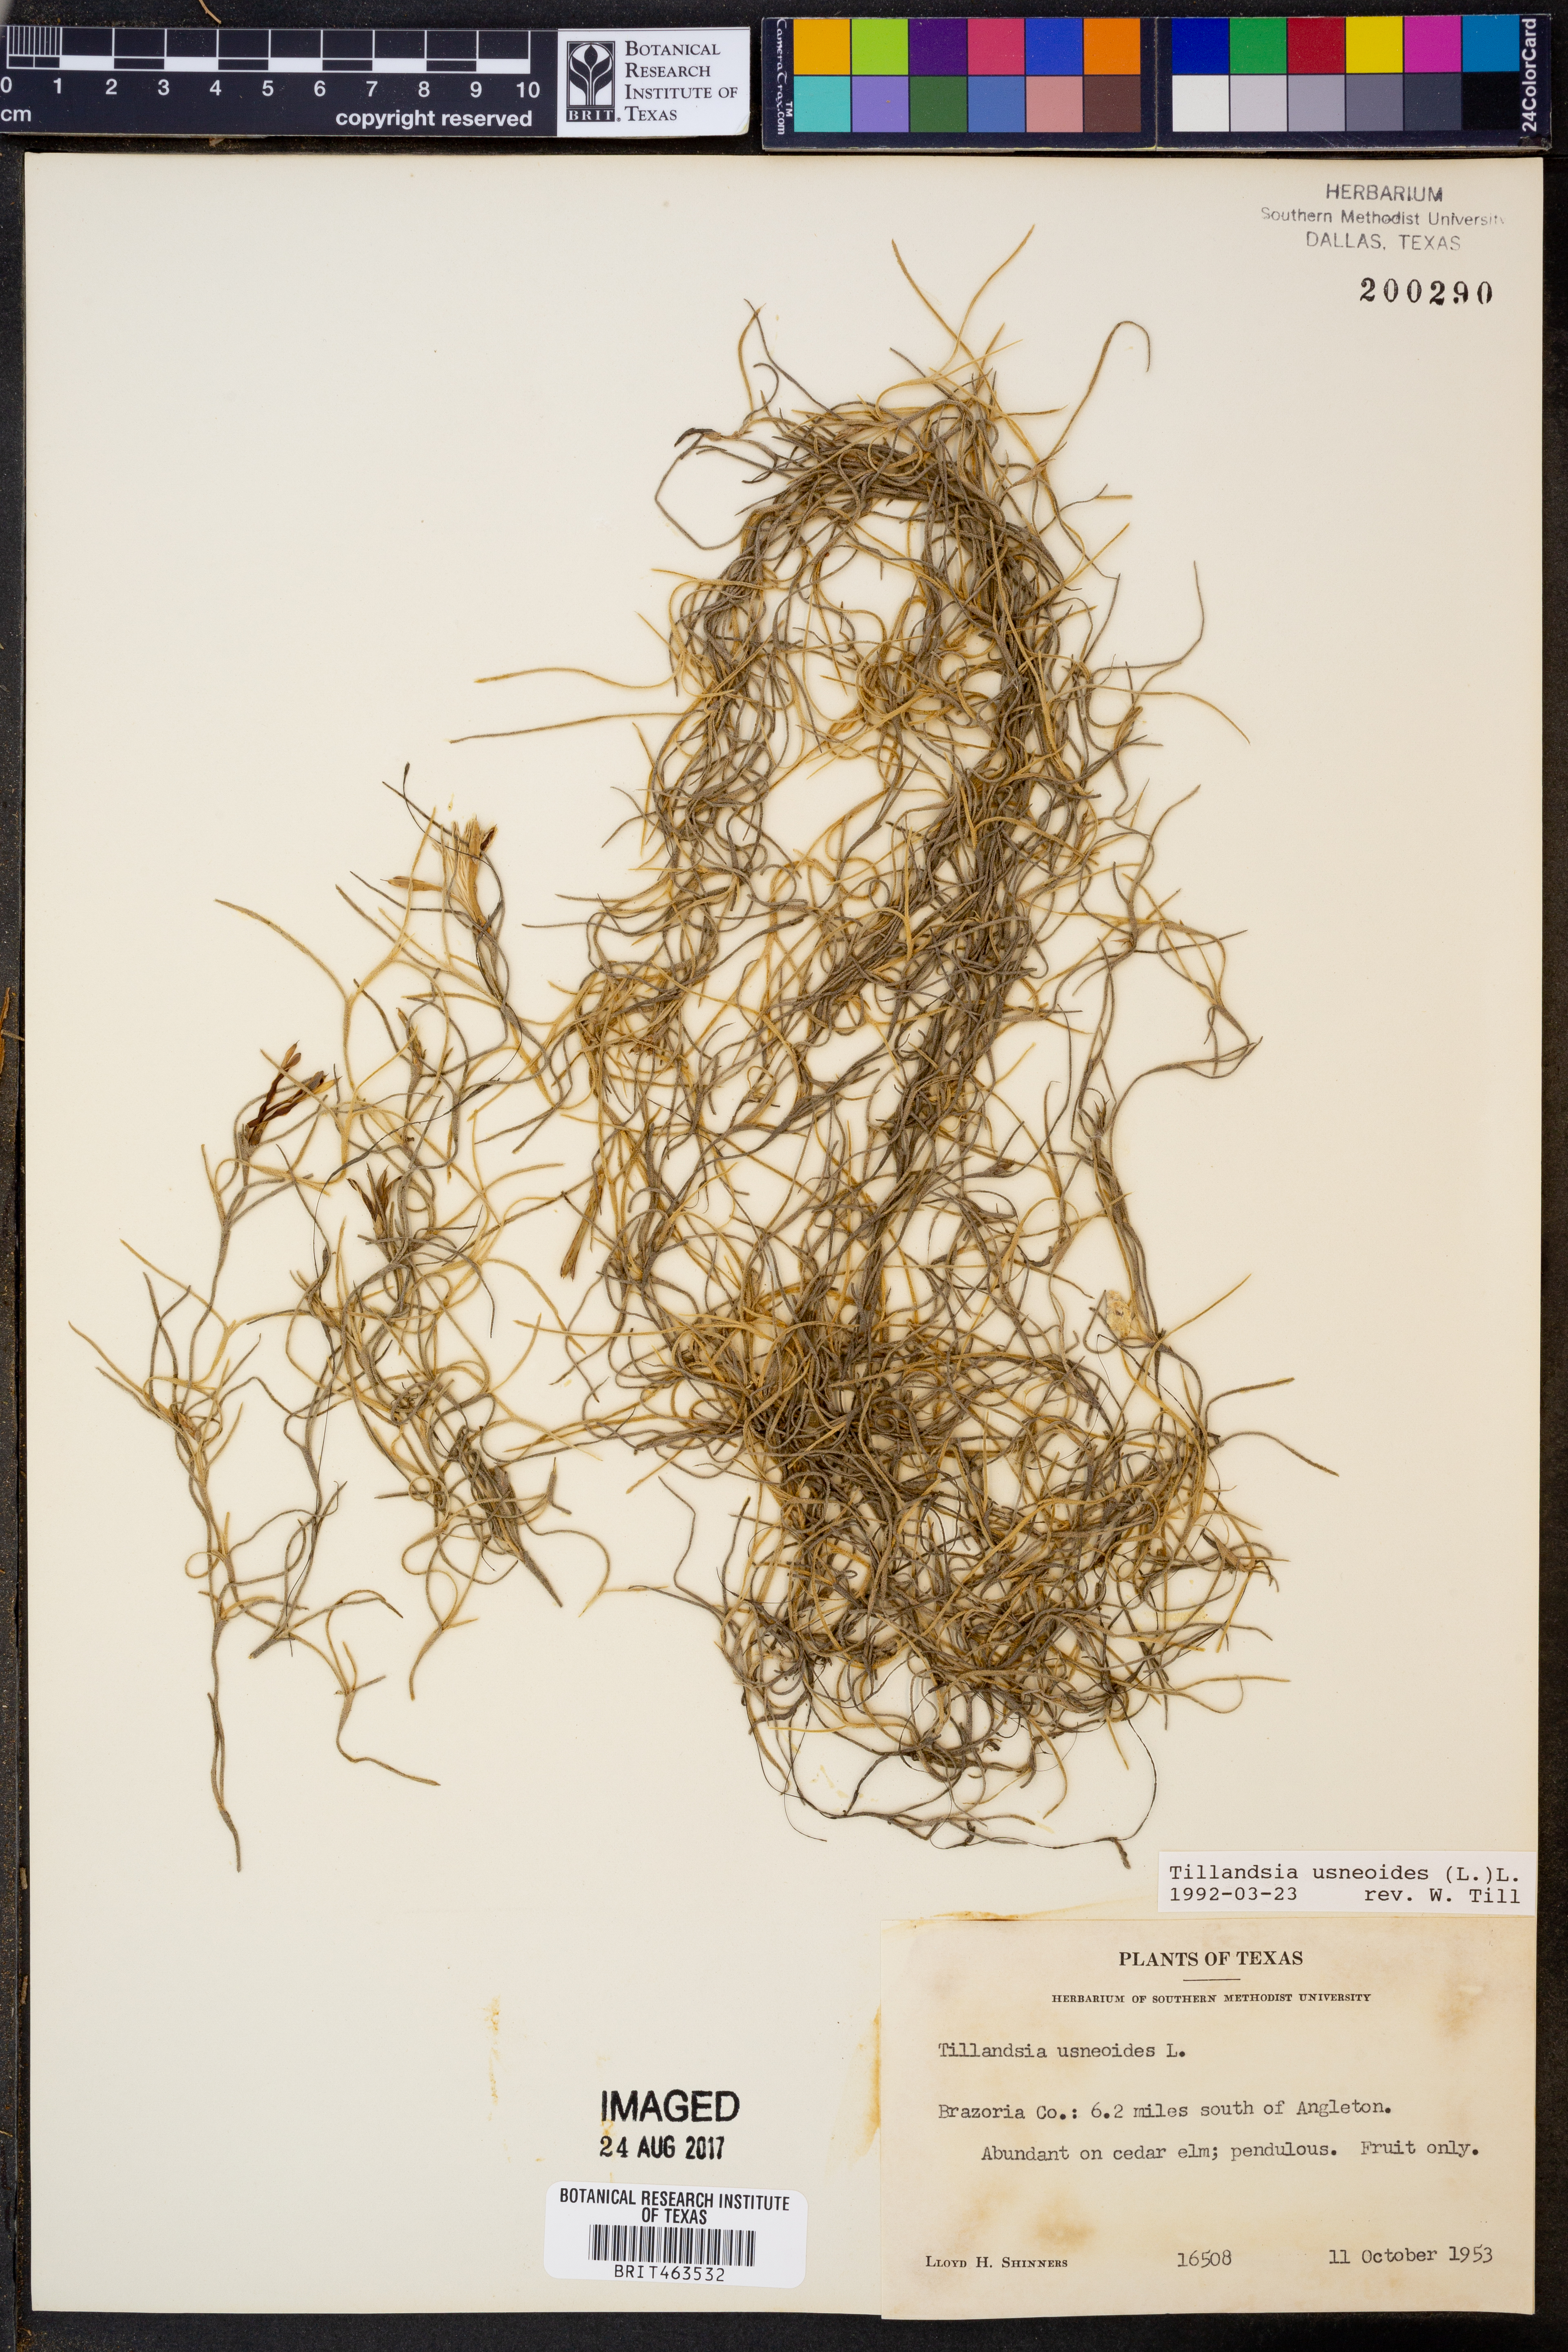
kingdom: Plantae
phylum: Tracheophyta
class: Liliopsida
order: Poales
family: Bromeliaceae
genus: Tillandsia
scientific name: Tillandsia usneoides
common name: Spanish moss
